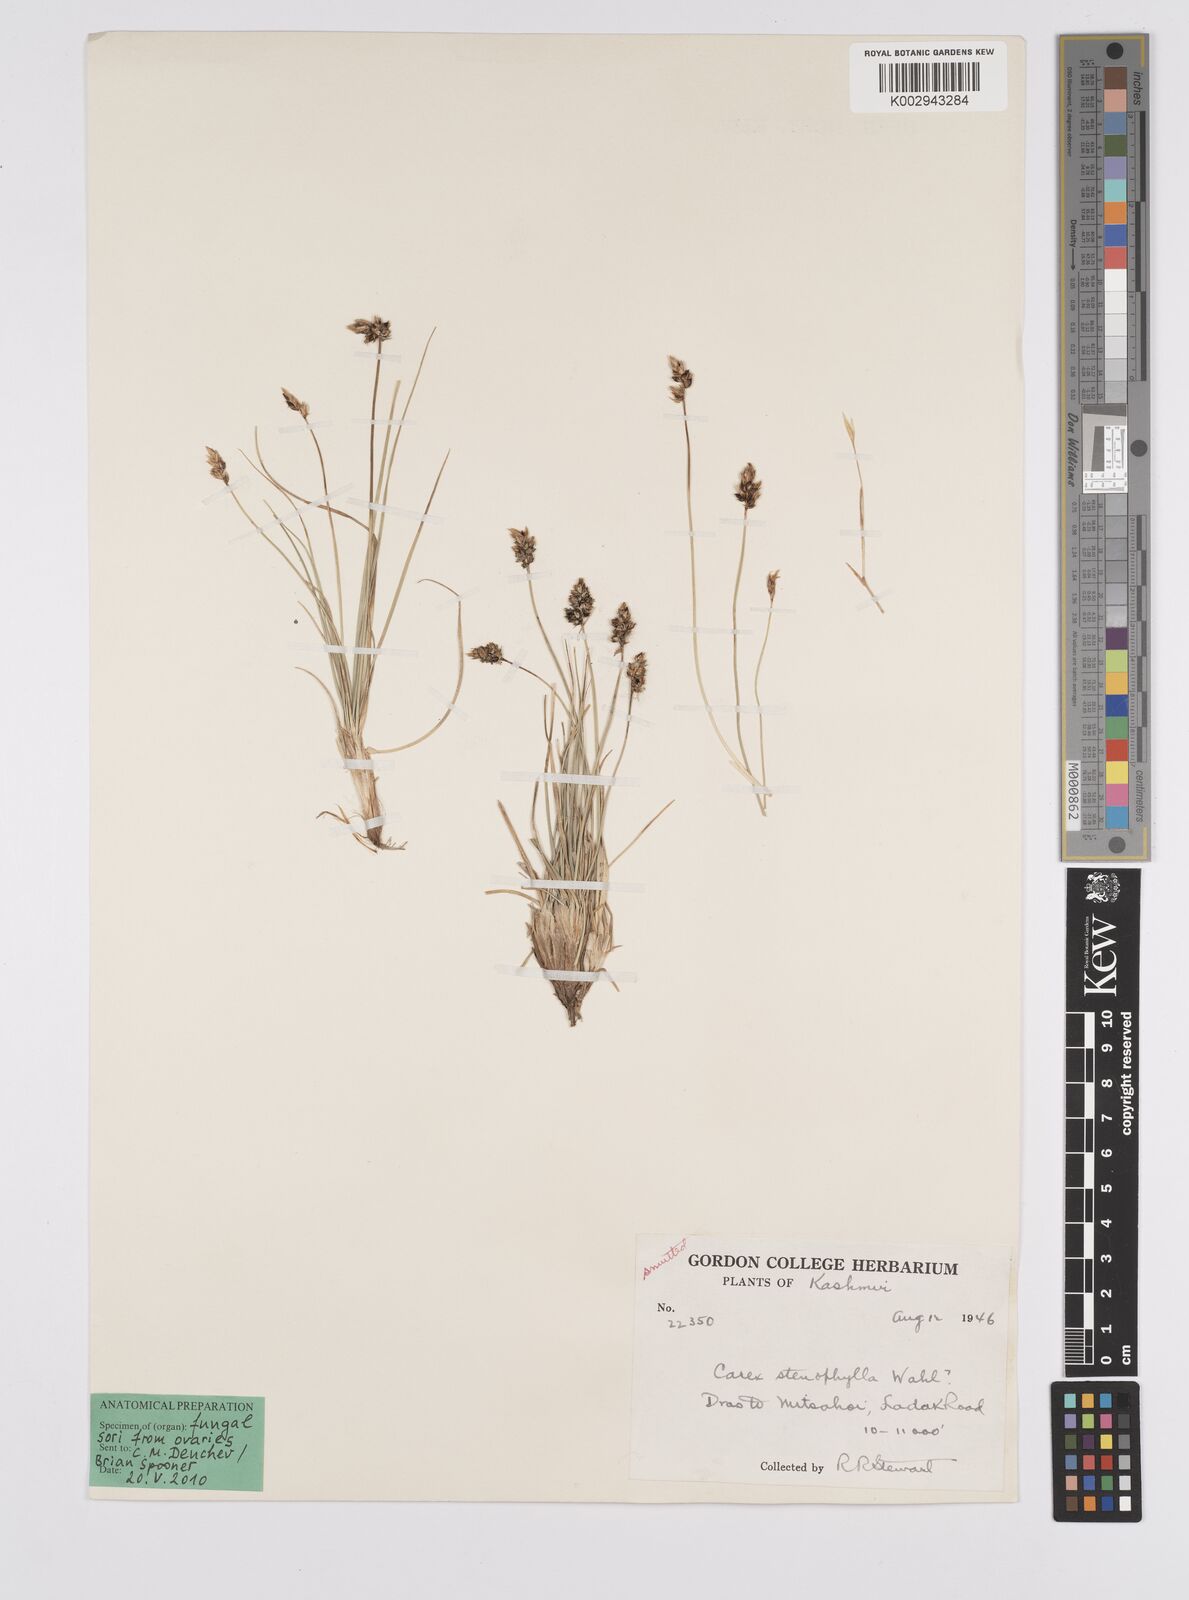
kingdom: Plantae
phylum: Tracheophyta
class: Liliopsida
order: Poales
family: Cyperaceae
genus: Carex
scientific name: Carex stenophylla
